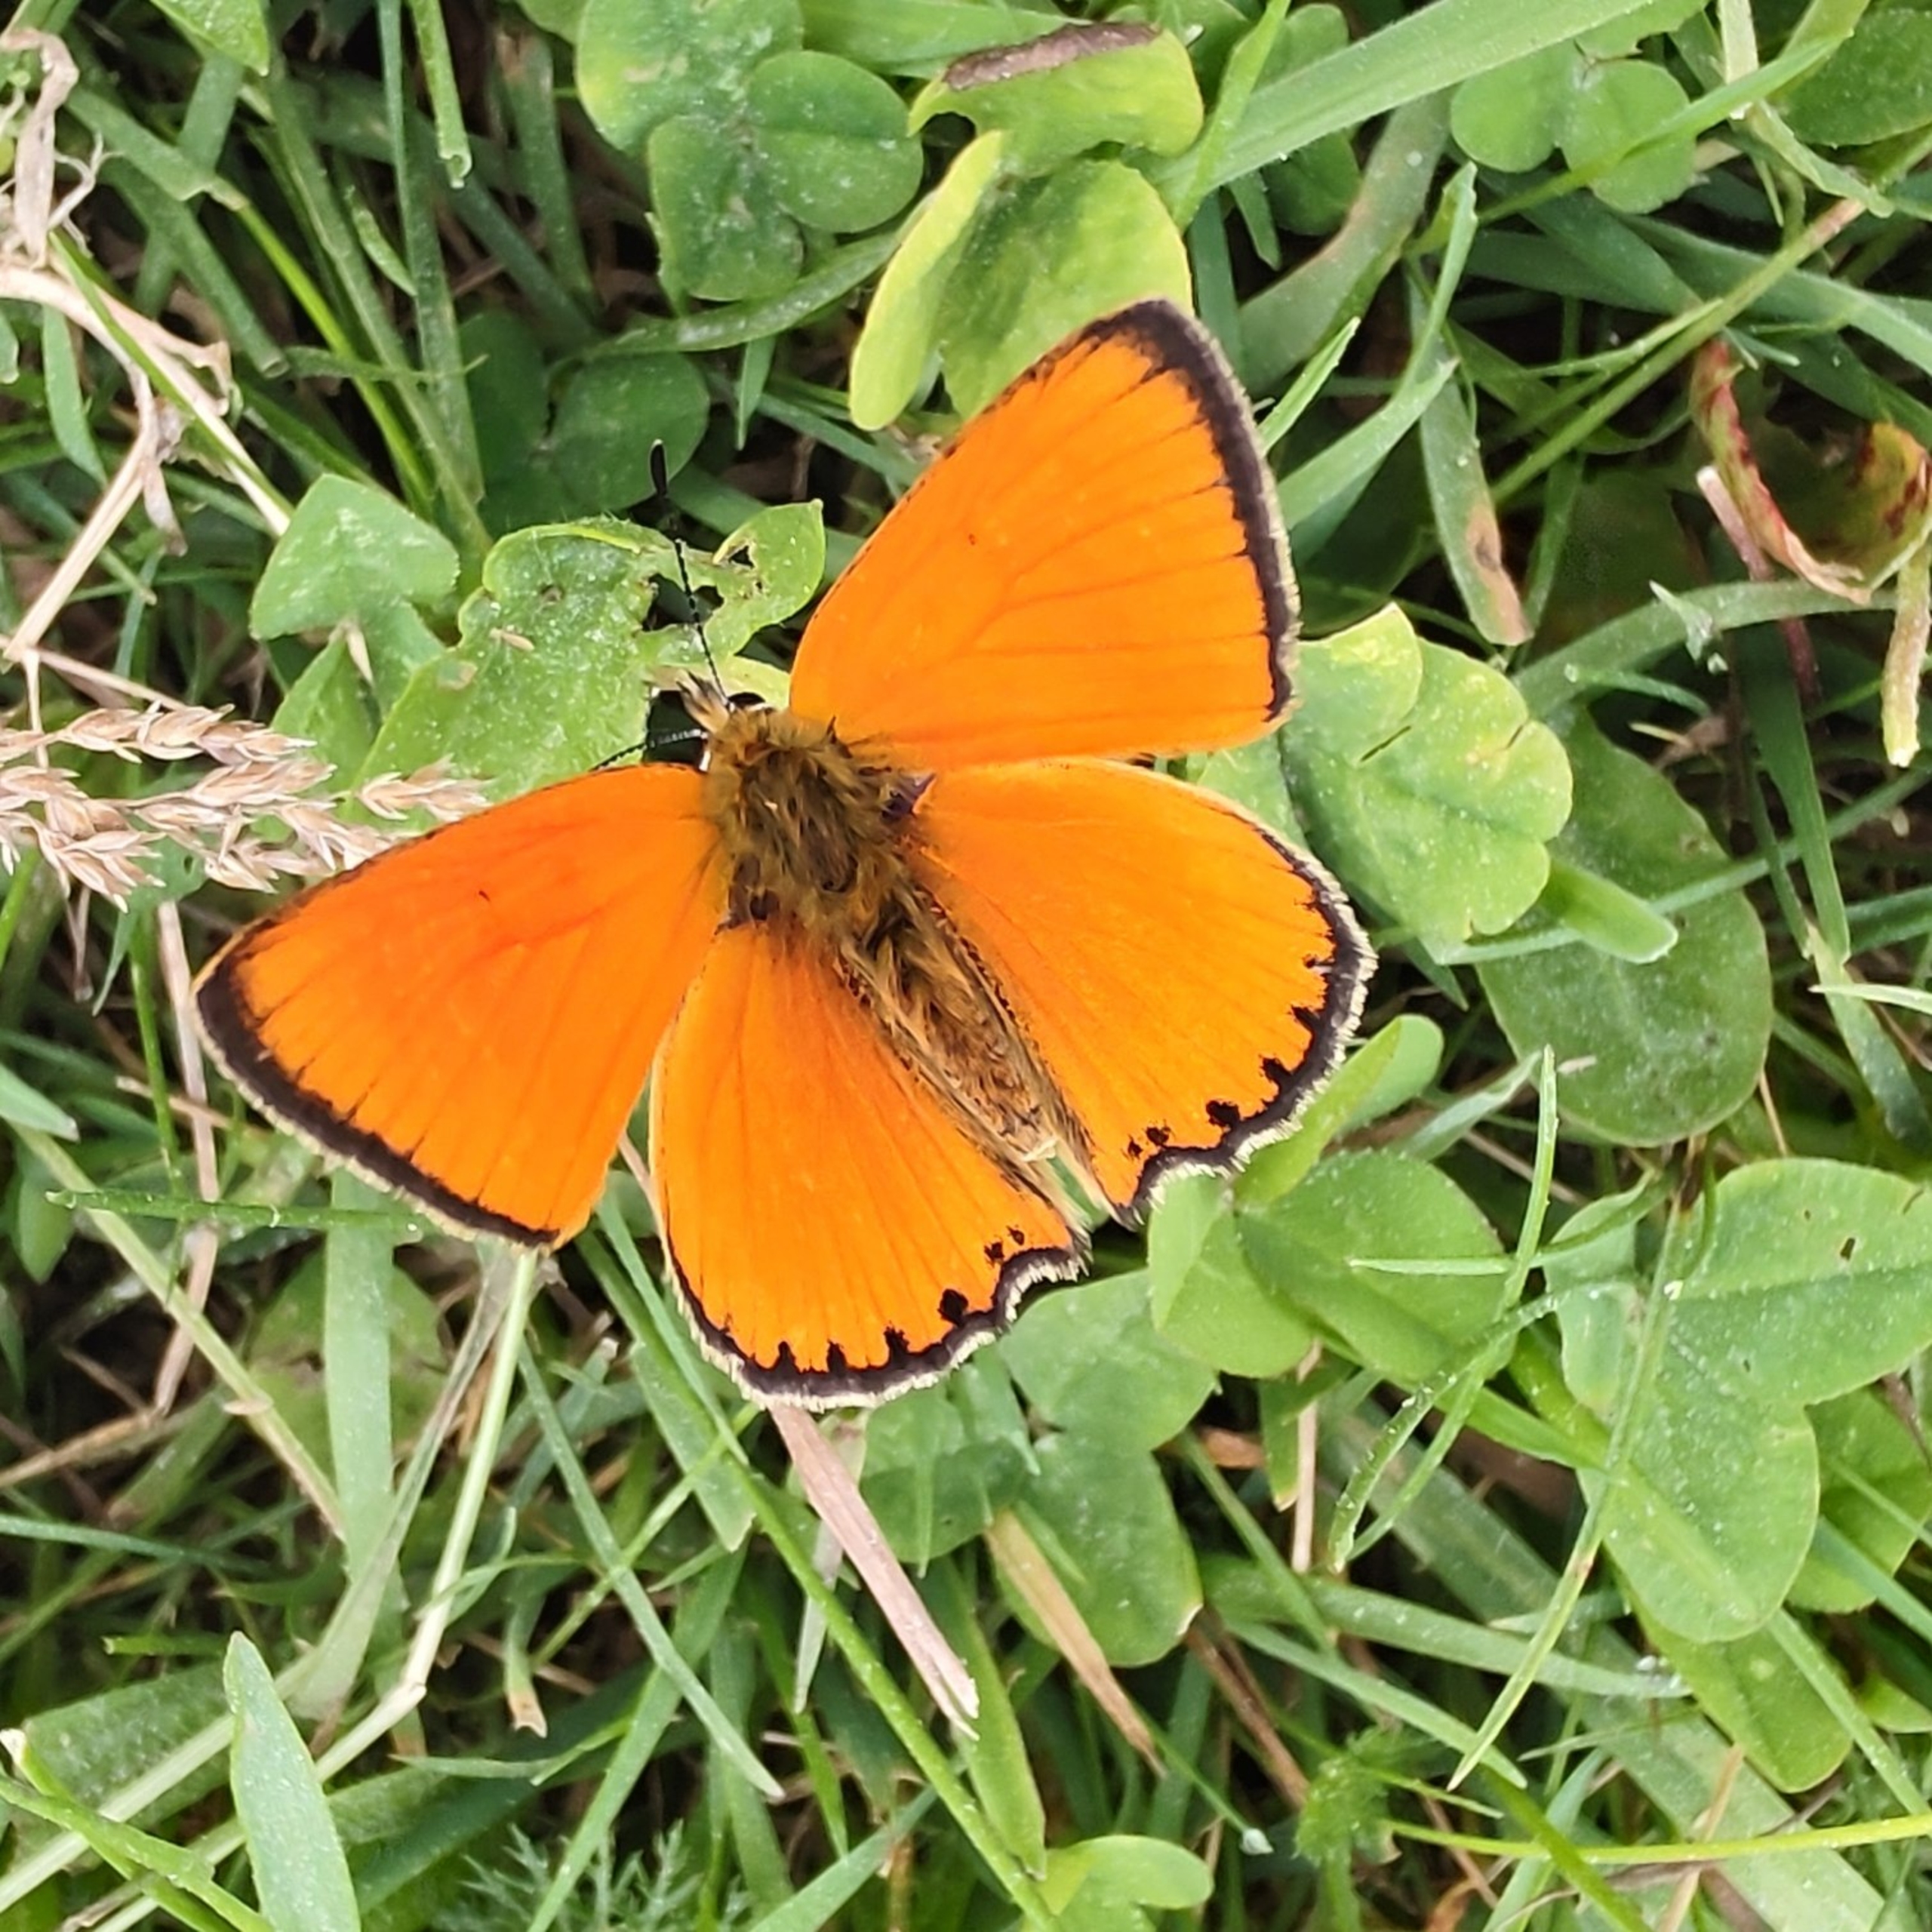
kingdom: Animalia
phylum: Arthropoda
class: Insecta
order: Lepidoptera
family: Lycaenidae
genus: Lycaena
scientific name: Lycaena virgaureae
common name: Dukatsommerfugl
